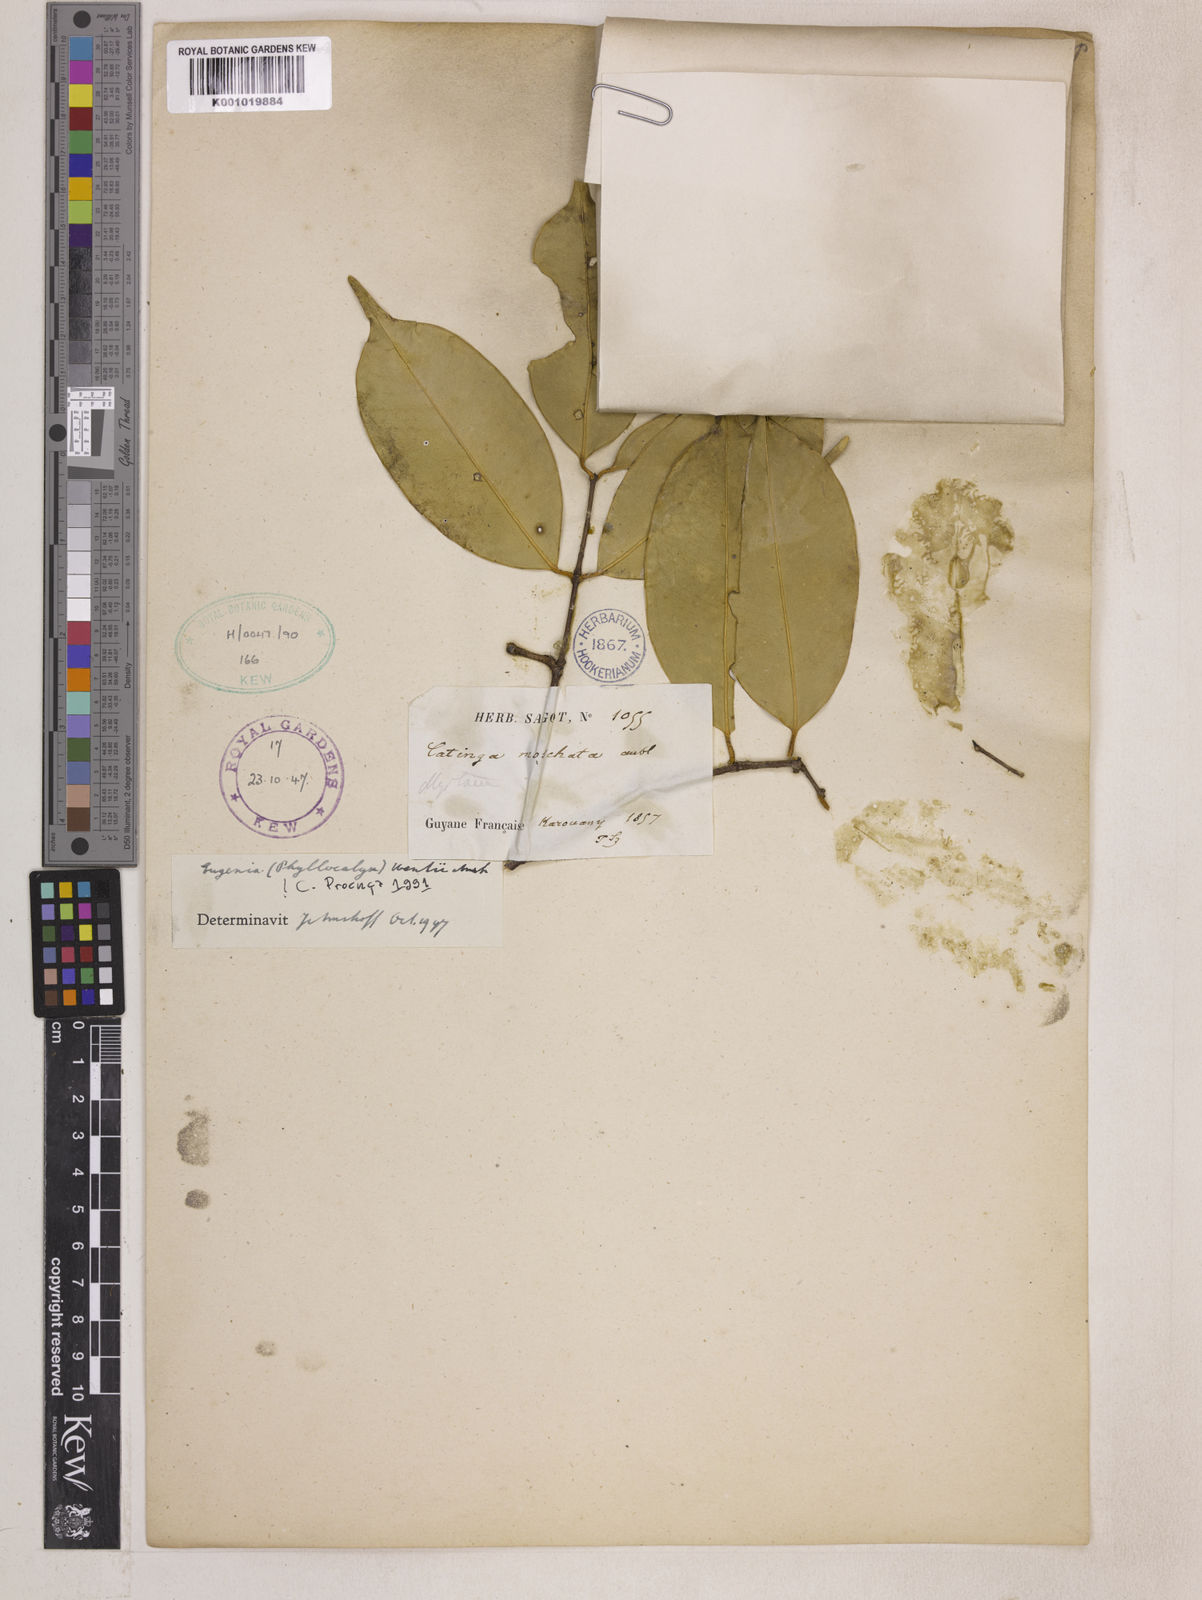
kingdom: Plantae
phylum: Tracheophyta
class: Magnoliopsida
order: Myrtales
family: Myrtaceae
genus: Eugenia
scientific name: Eugenia wentii
